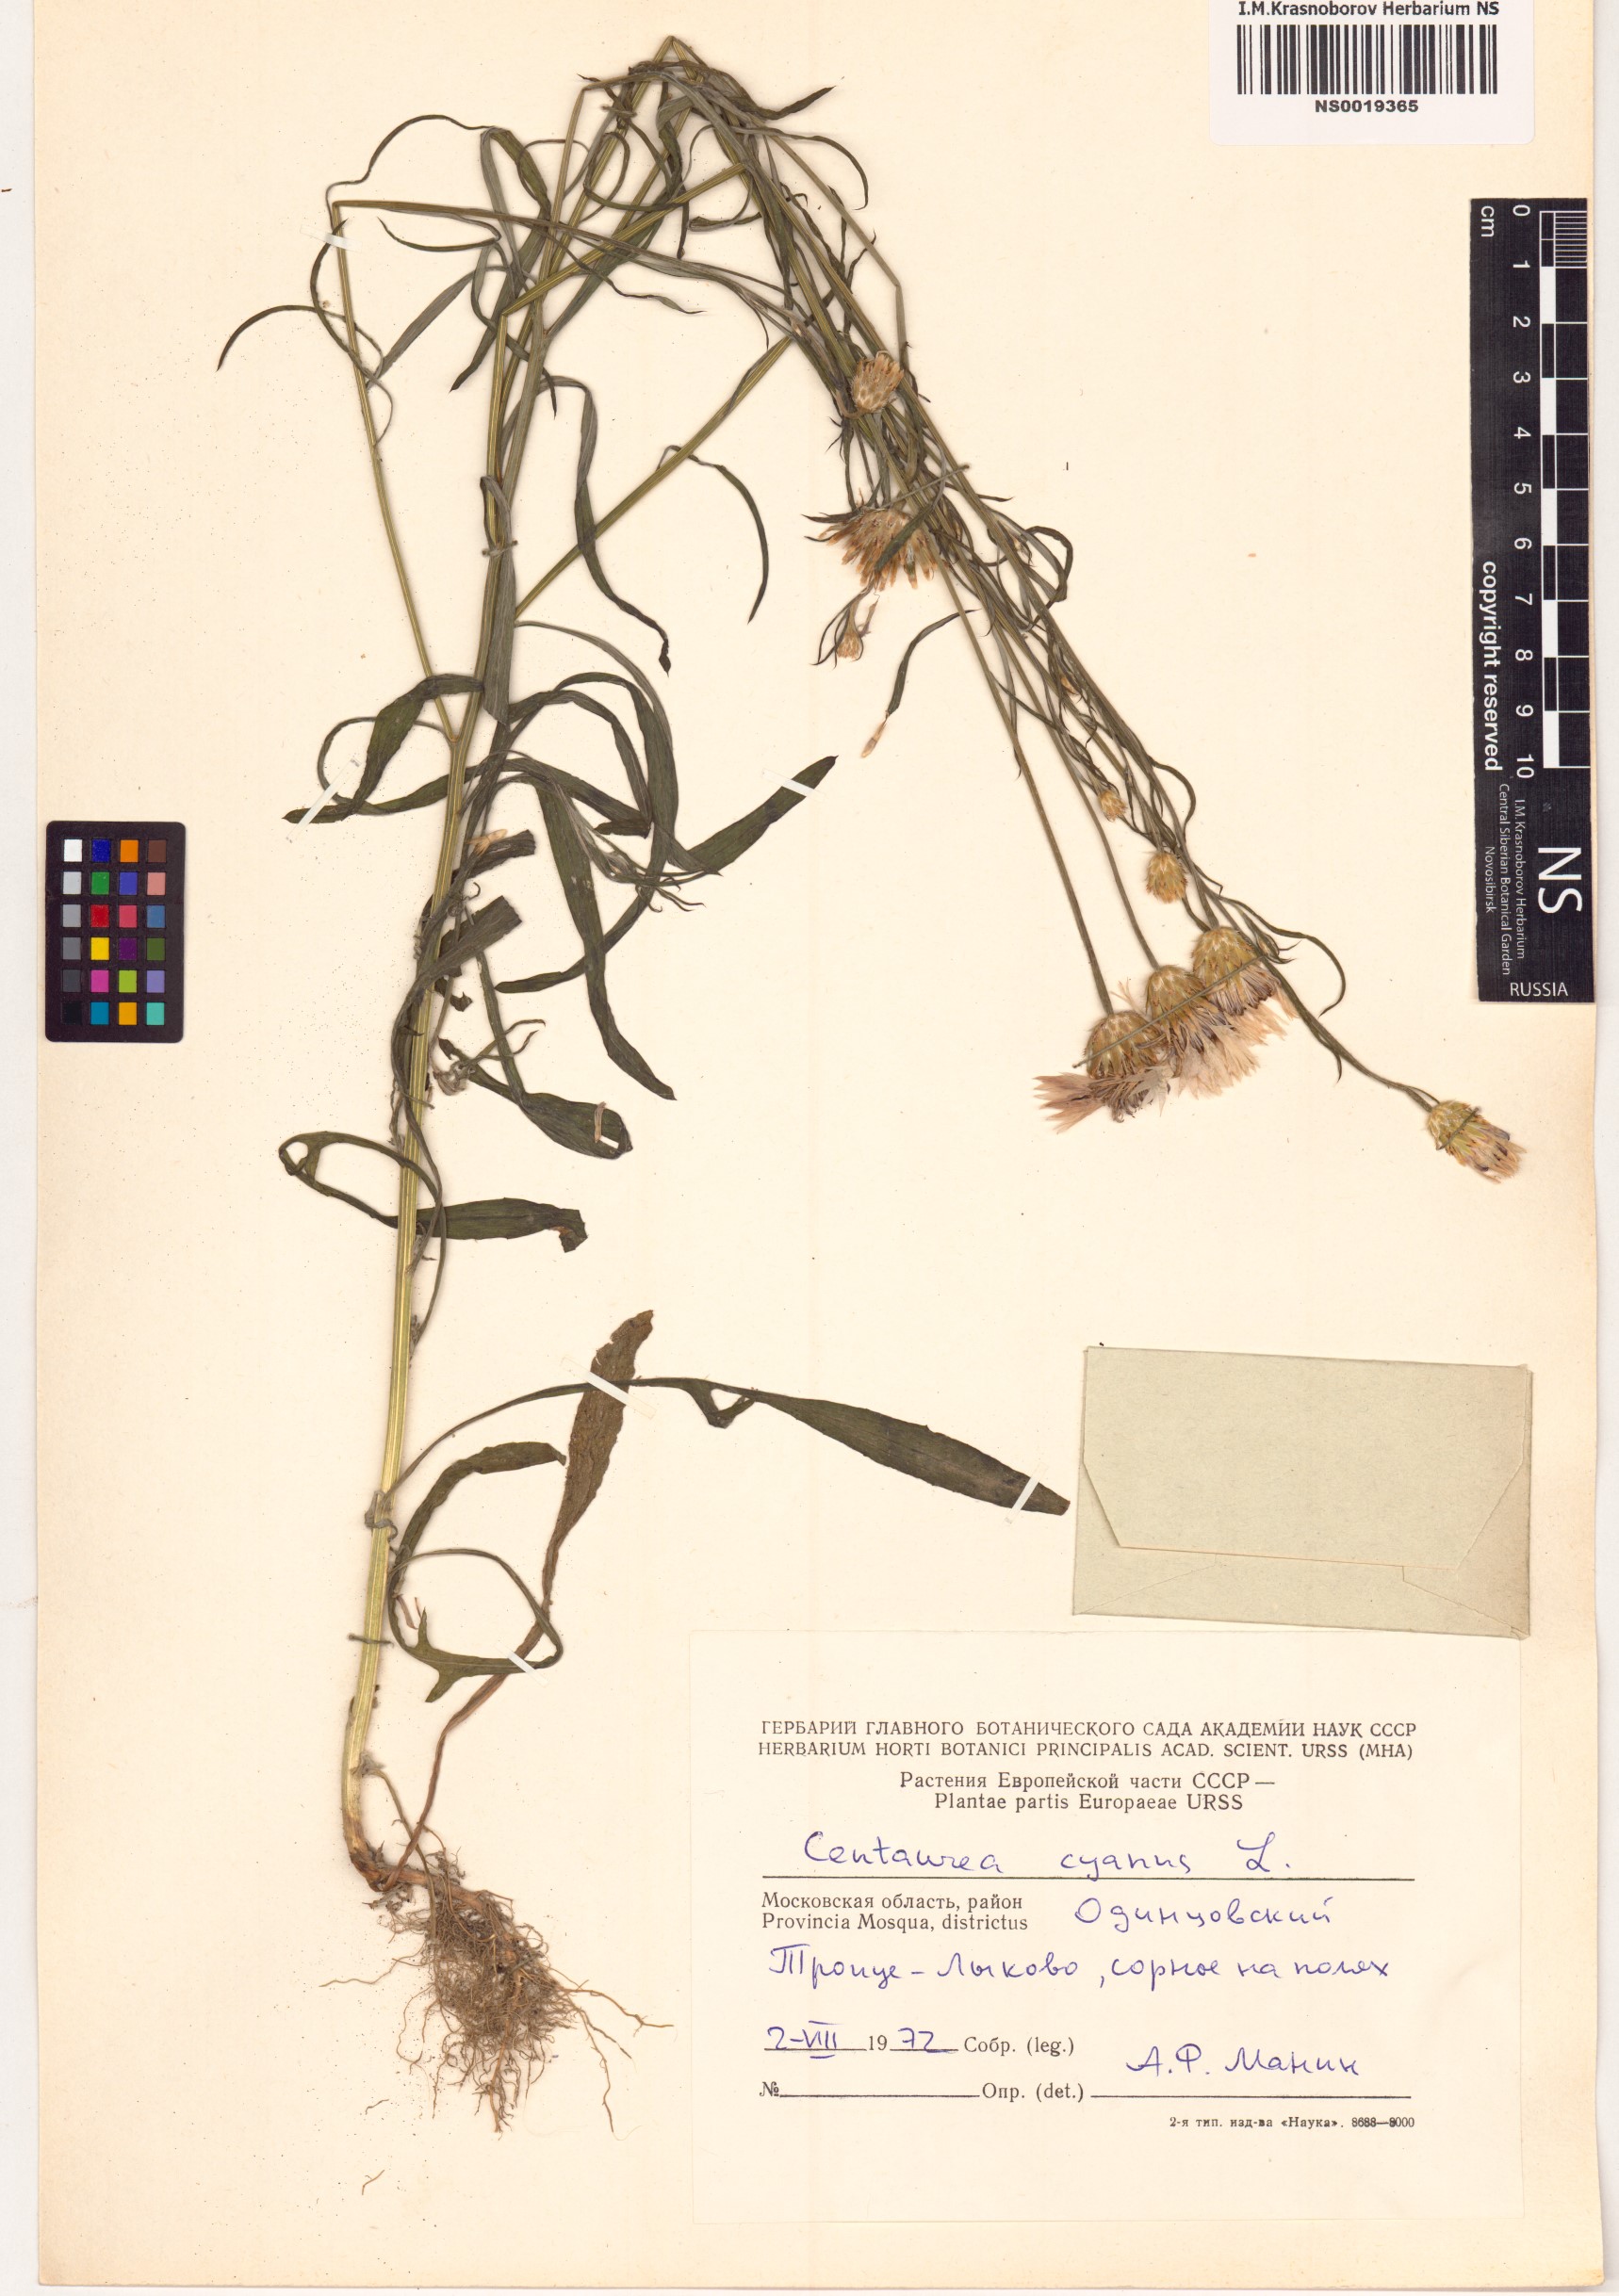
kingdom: Plantae
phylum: Tracheophyta
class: Magnoliopsida
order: Asterales
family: Asteraceae
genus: Centaurea
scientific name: Centaurea cyanus
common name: Cornflower
